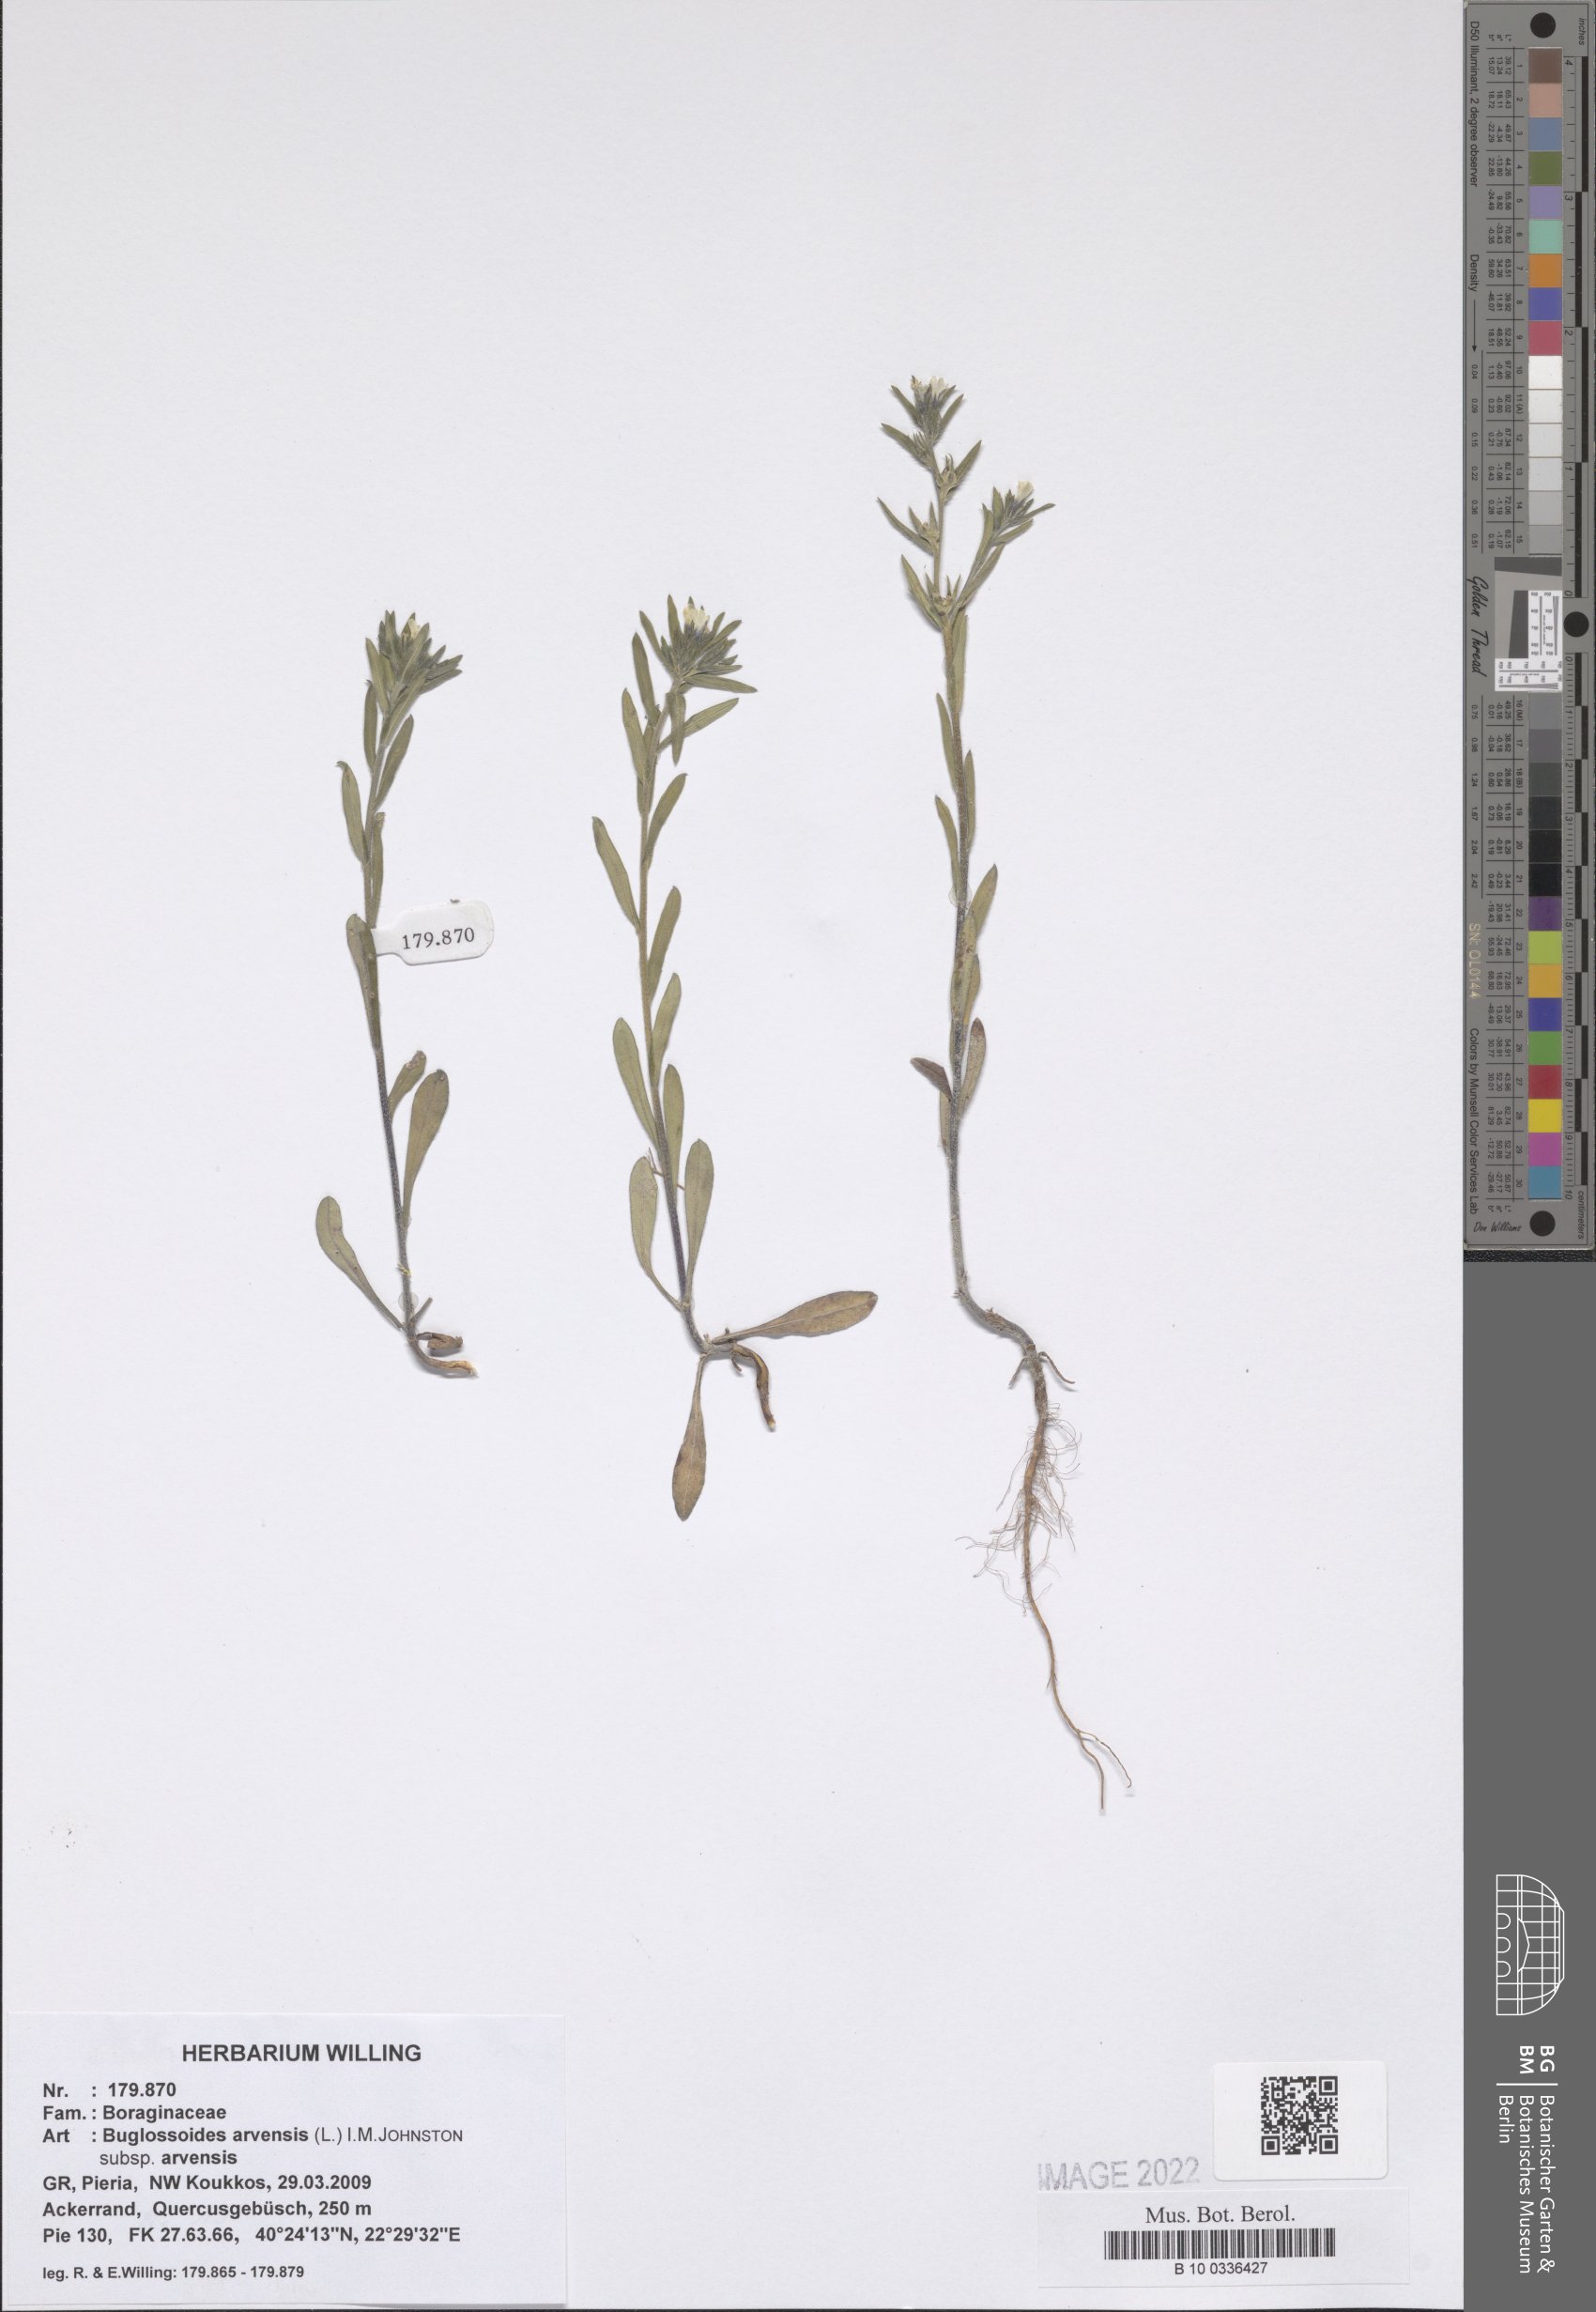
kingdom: Plantae
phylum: Tracheophyta
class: Magnoliopsida
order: Boraginales
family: Boraginaceae
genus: Buglossoides
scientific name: Buglossoides arvensis
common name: Corn gromwell
